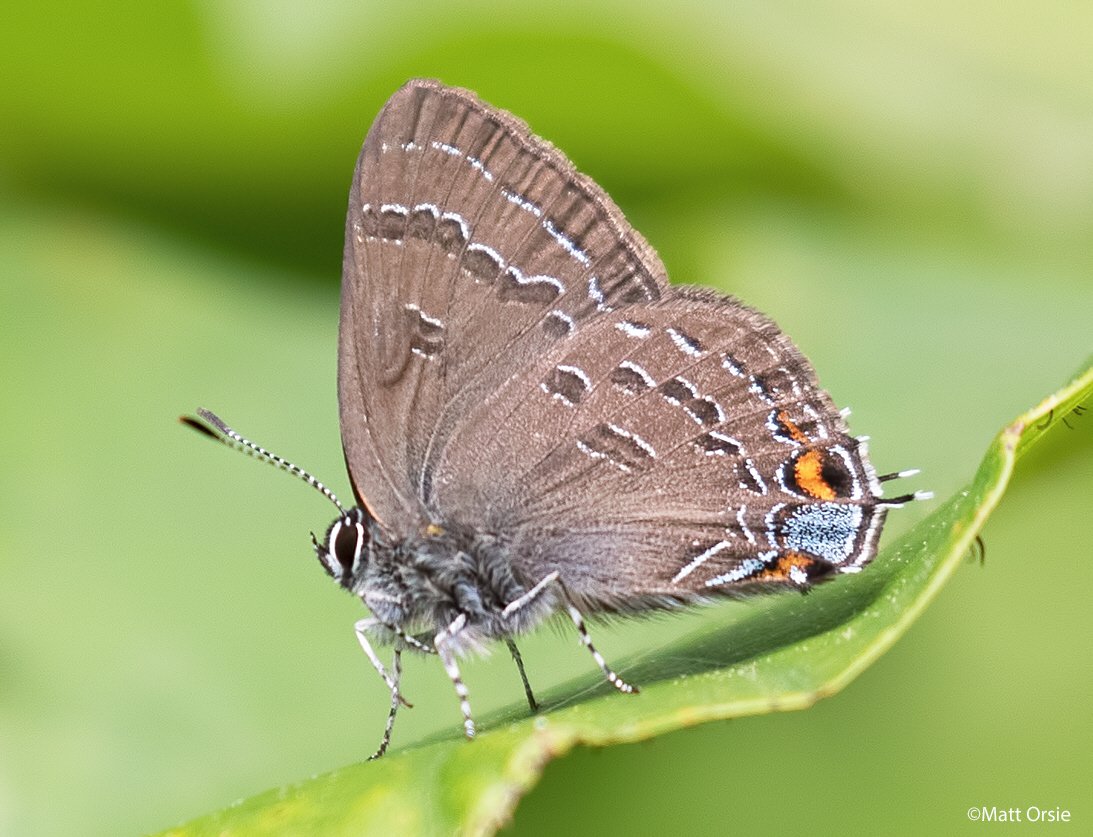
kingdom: Animalia
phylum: Arthropoda
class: Insecta
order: Lepidoptera
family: Lycaenidae
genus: Satyrium
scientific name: Satyrium calanus
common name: Banded Hairstreak
